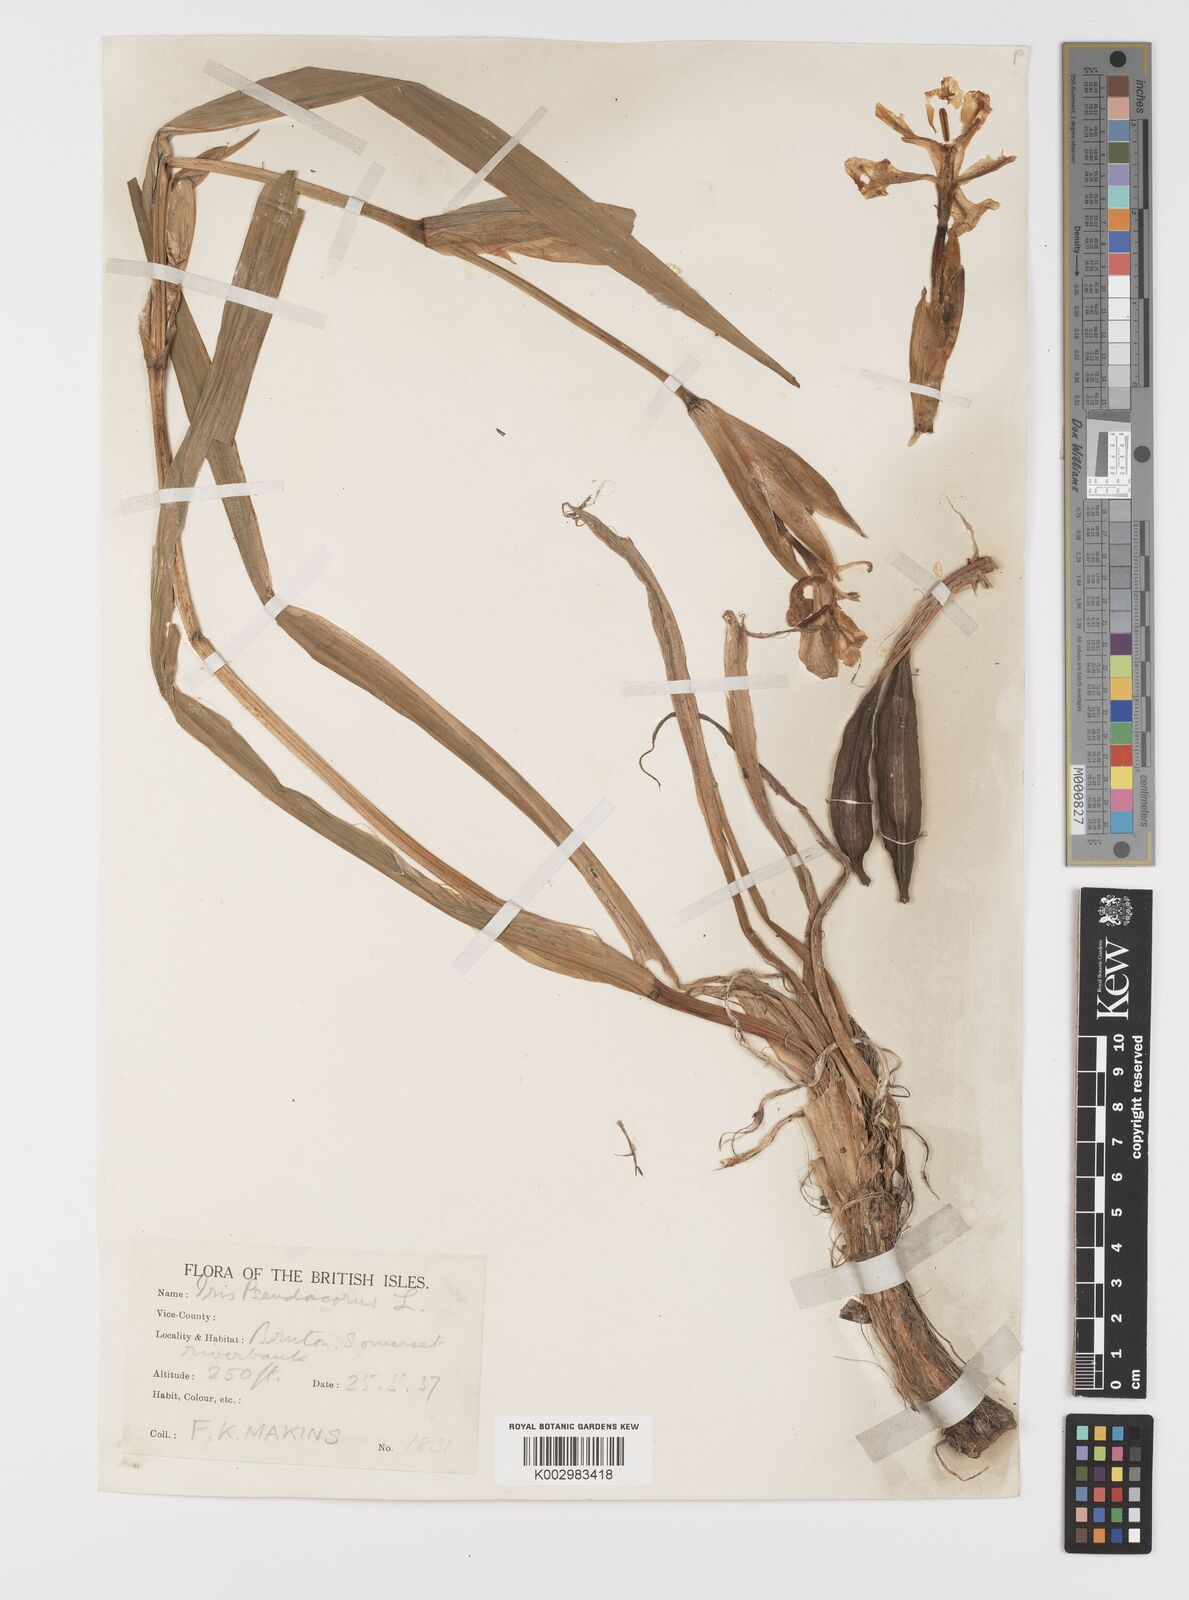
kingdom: Plantae
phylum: Tracheophyta
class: Liliopsida
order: Asparagales
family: Iridaceae
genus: Iris
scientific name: Iris pseudacorus
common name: Yellow flag
